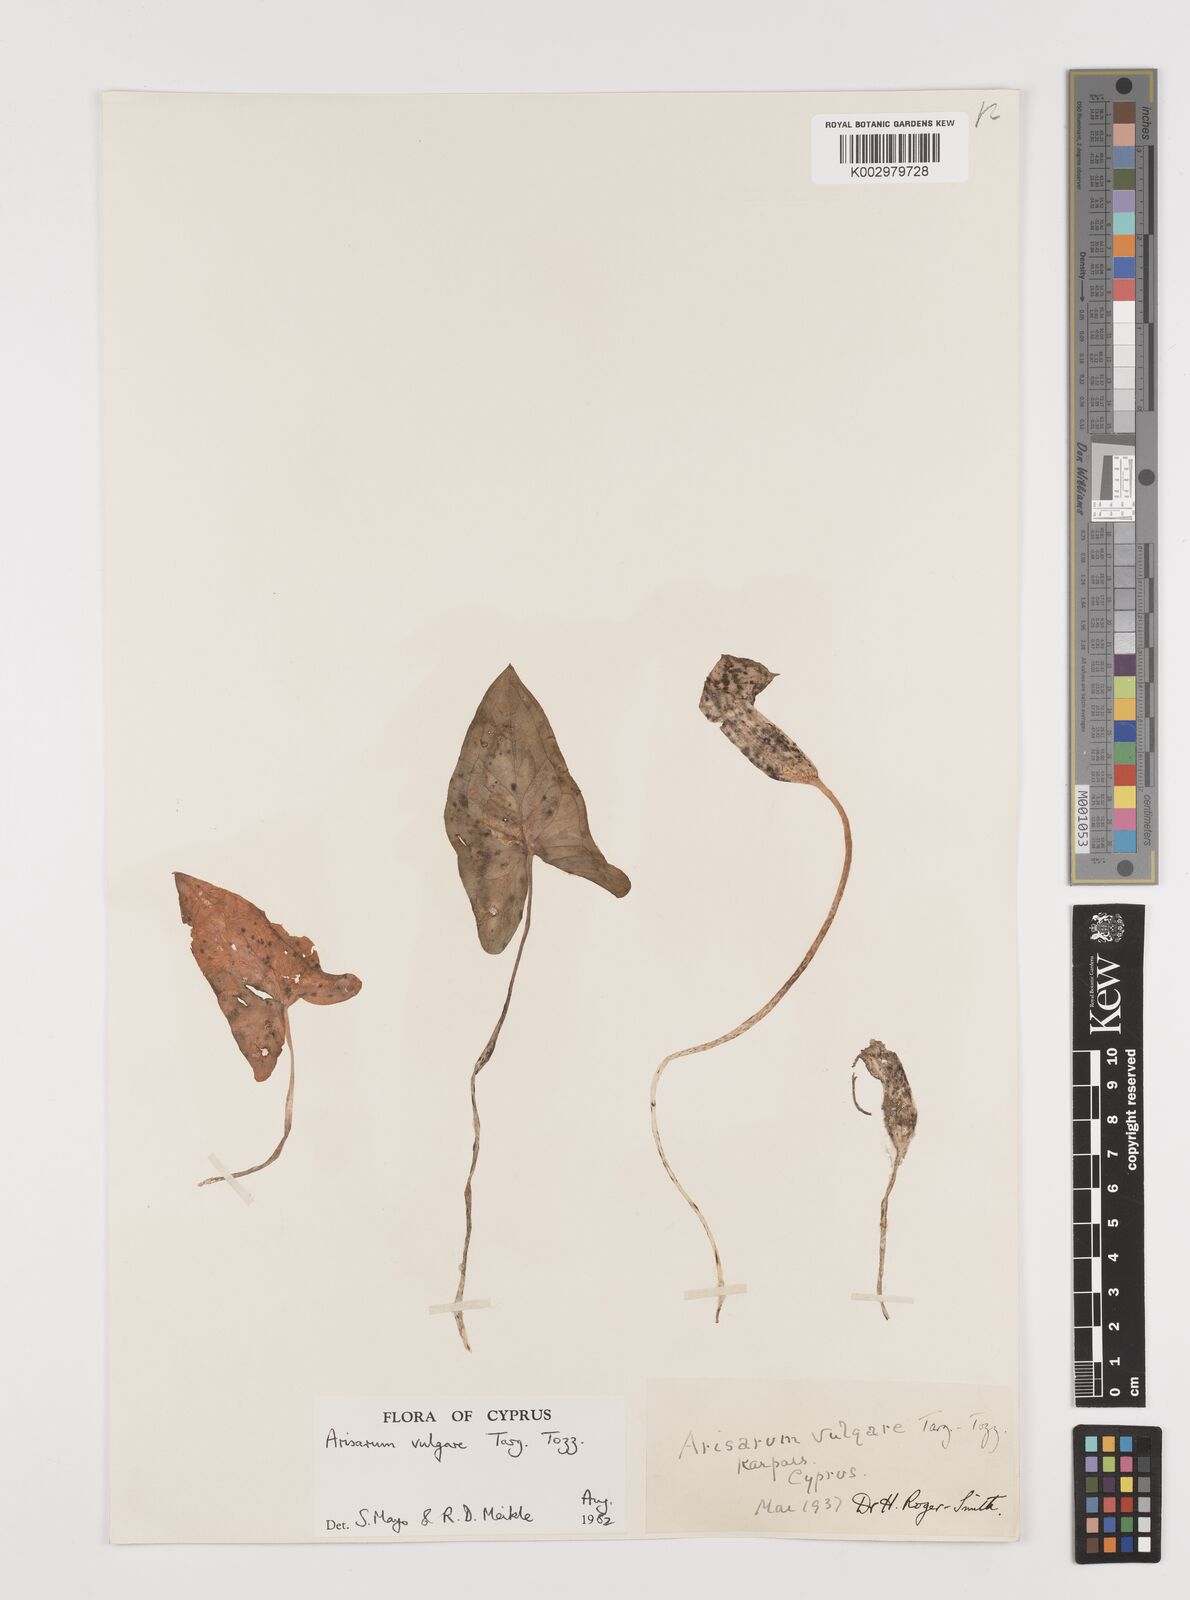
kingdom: Plantae
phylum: Tracheophyta
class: Liliopsida
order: Alismatales
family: Araceae
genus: Arisarum
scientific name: Arisarum vulgare
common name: Common arisarum
